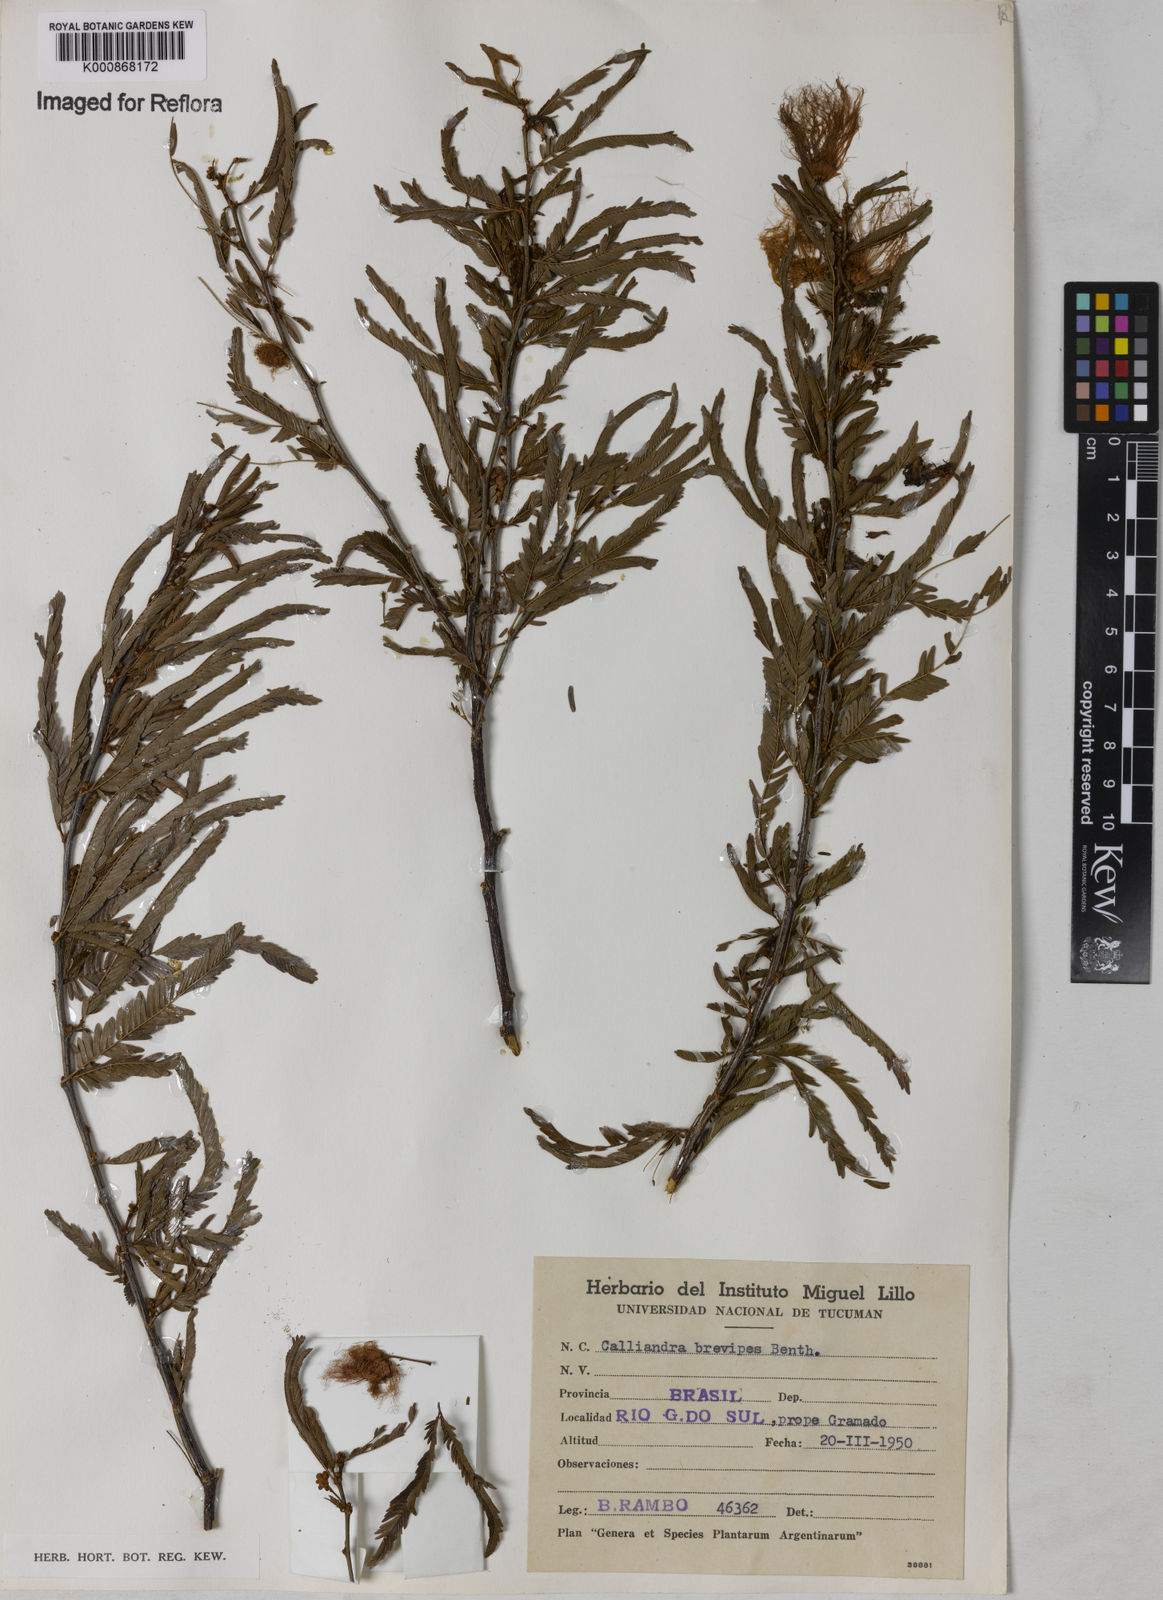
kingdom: Plantae
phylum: Tracheophyta
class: Magnoliopsida
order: Fabales
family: Fabaceae
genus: Calliandra
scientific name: Calliandra selloi
